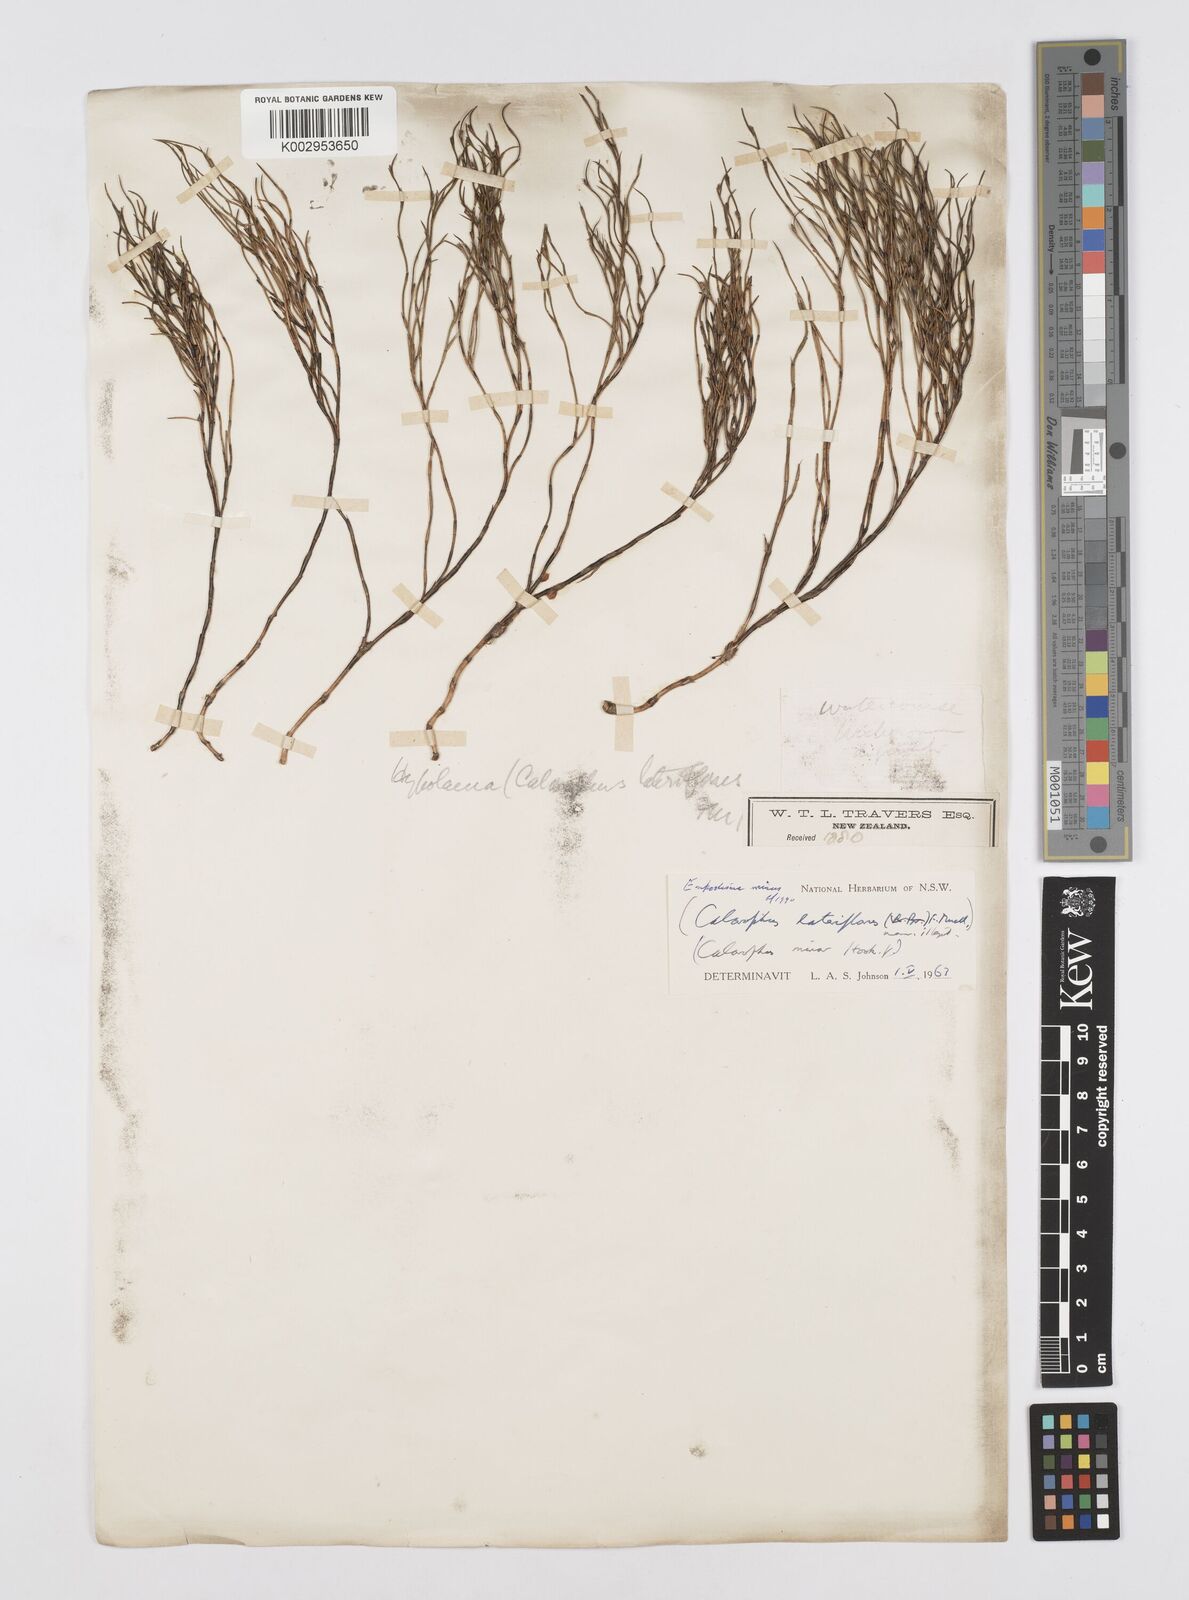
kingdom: Plantae
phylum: Tracheophyta
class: Liliopsida
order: Poales
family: Restionaceae
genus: Empodisma
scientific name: Empodisma minus
